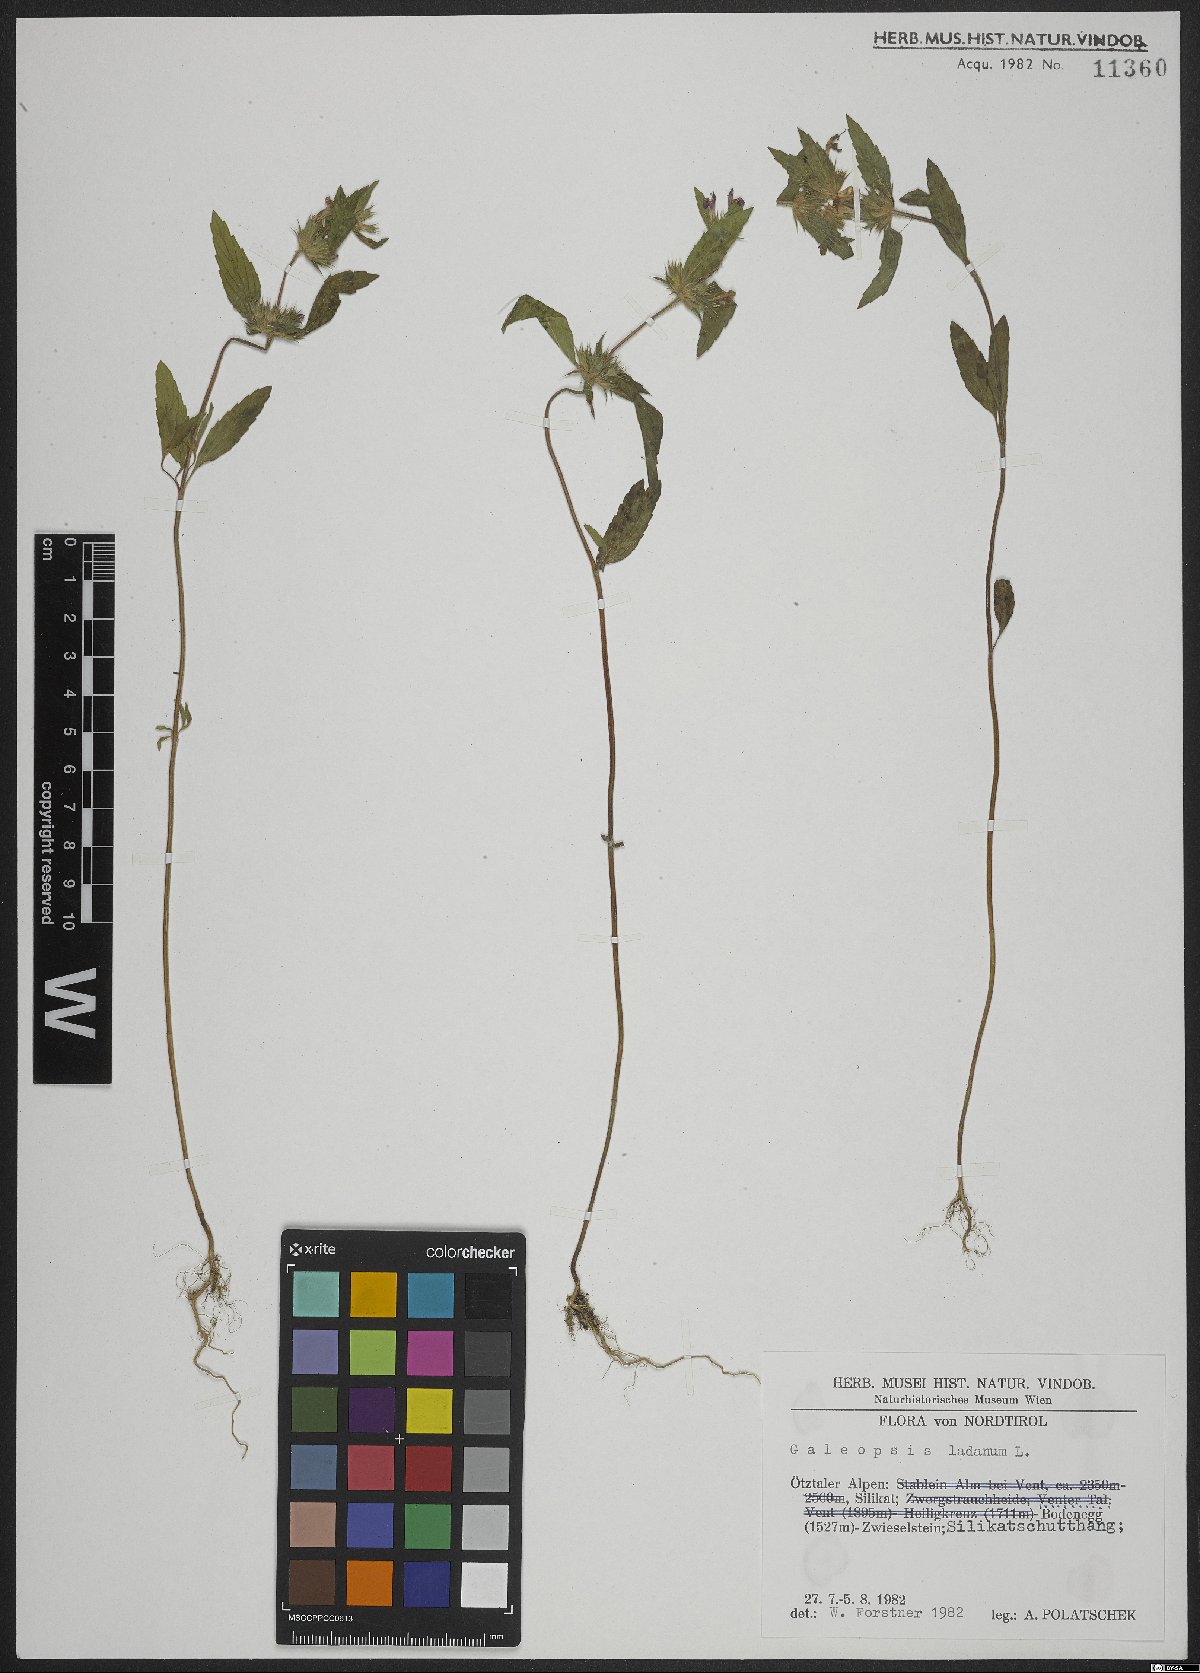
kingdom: Plantae
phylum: Tracheophyta
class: Magnoliopsida
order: Lamiales
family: Lamiaceae
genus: Galeopsis
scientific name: Galeopsis ladanum
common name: Broad-leaved hemp-nettle
